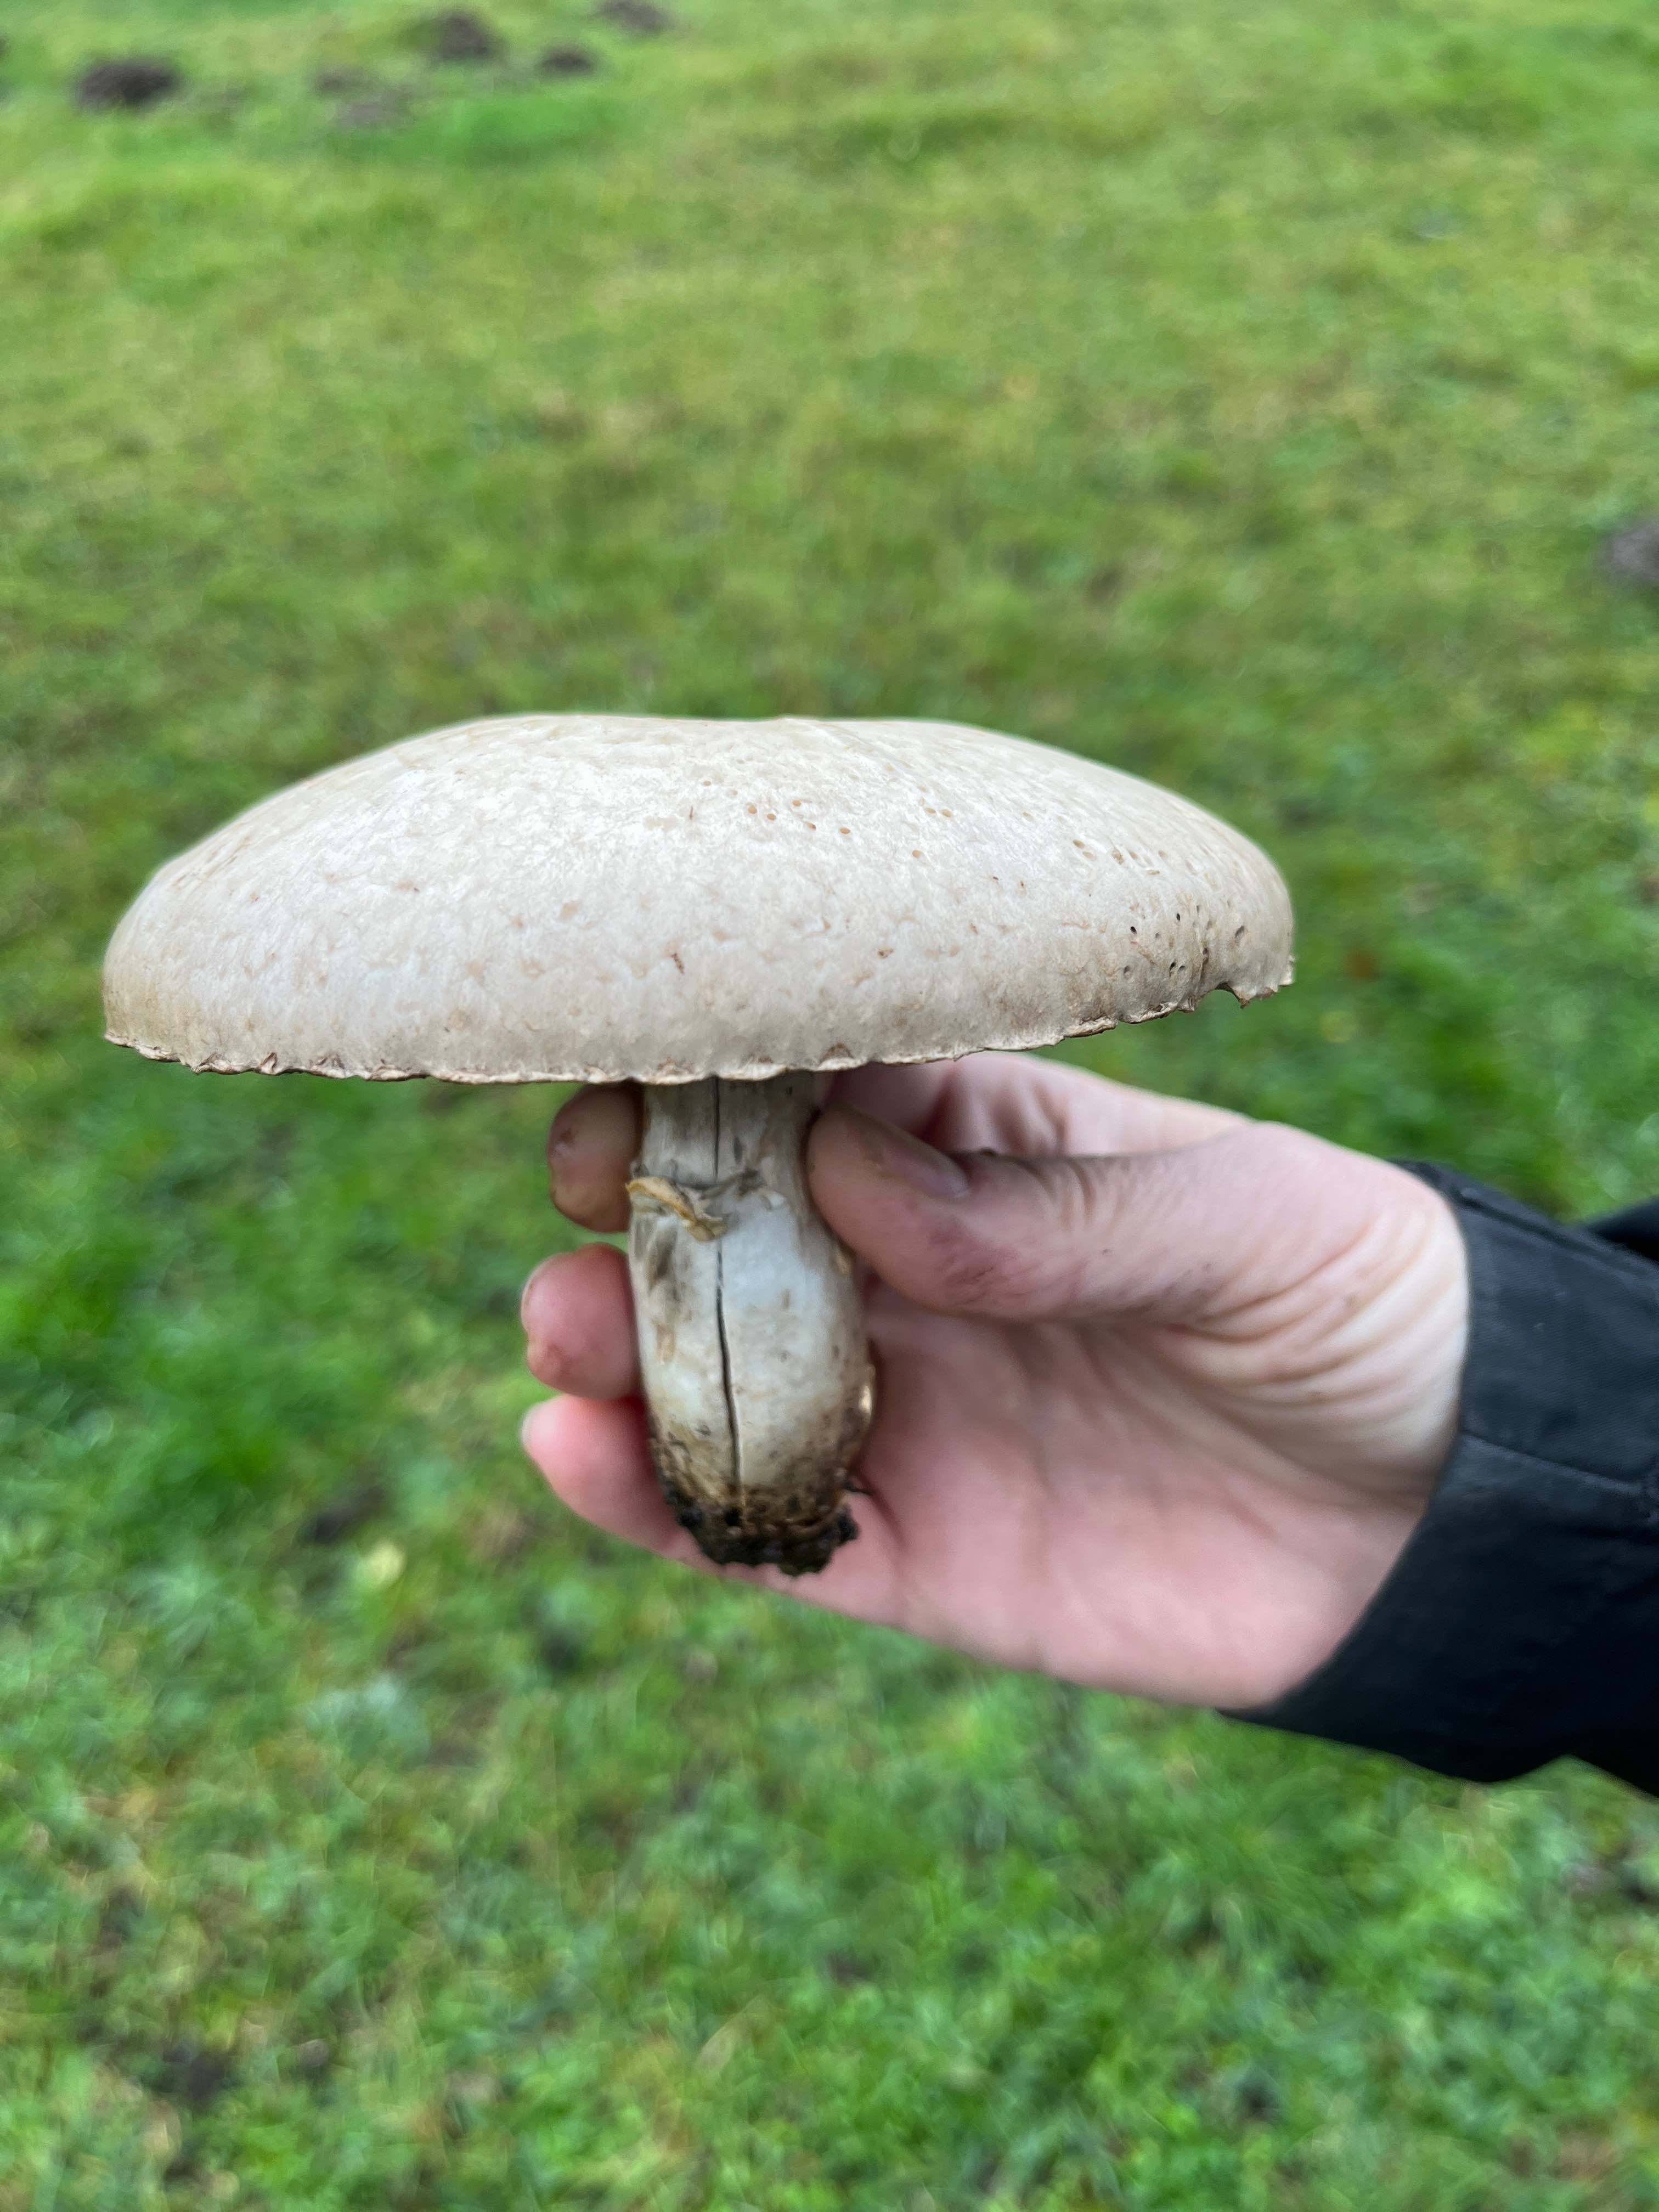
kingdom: Fungi
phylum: Basidiomycota
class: Agaricomycetes
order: Agaricales
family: Agaricaceae
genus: Agaricus
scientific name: Agaricus
